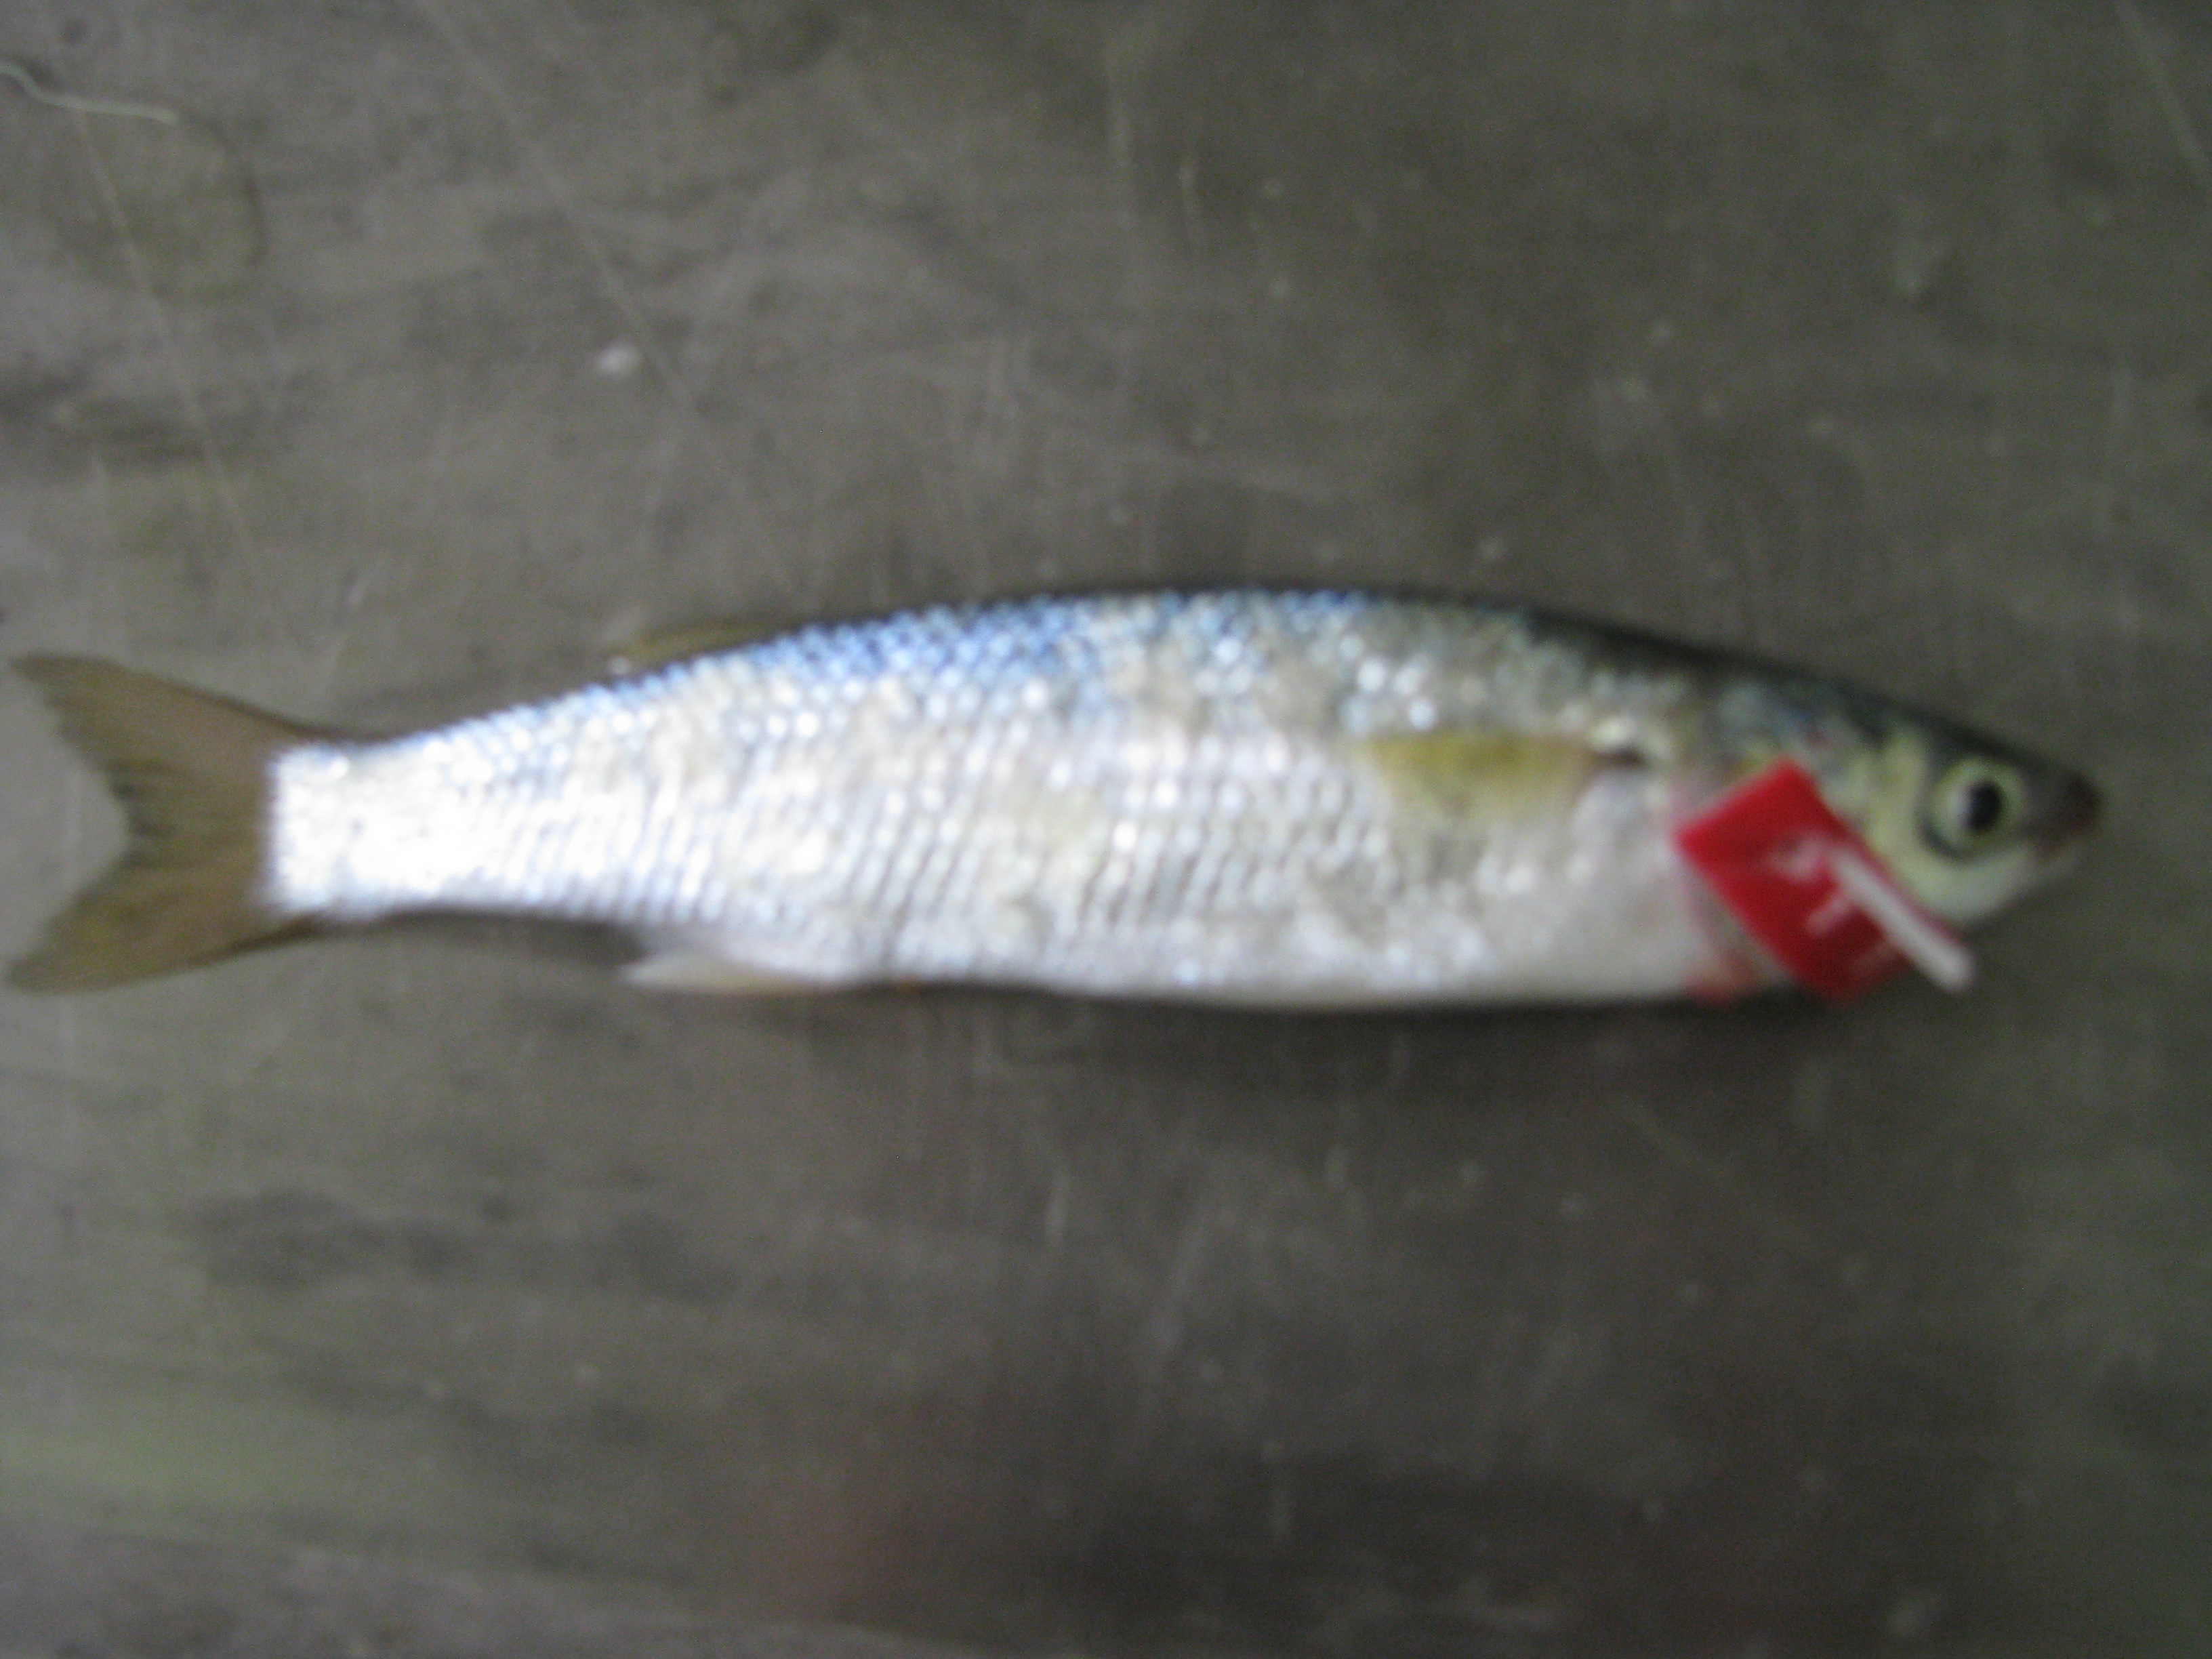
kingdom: Animalia
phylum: Chordata
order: Mugiliformes
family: Mugilidae
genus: Chelon
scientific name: Chelon richardsonii
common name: South african mullet
